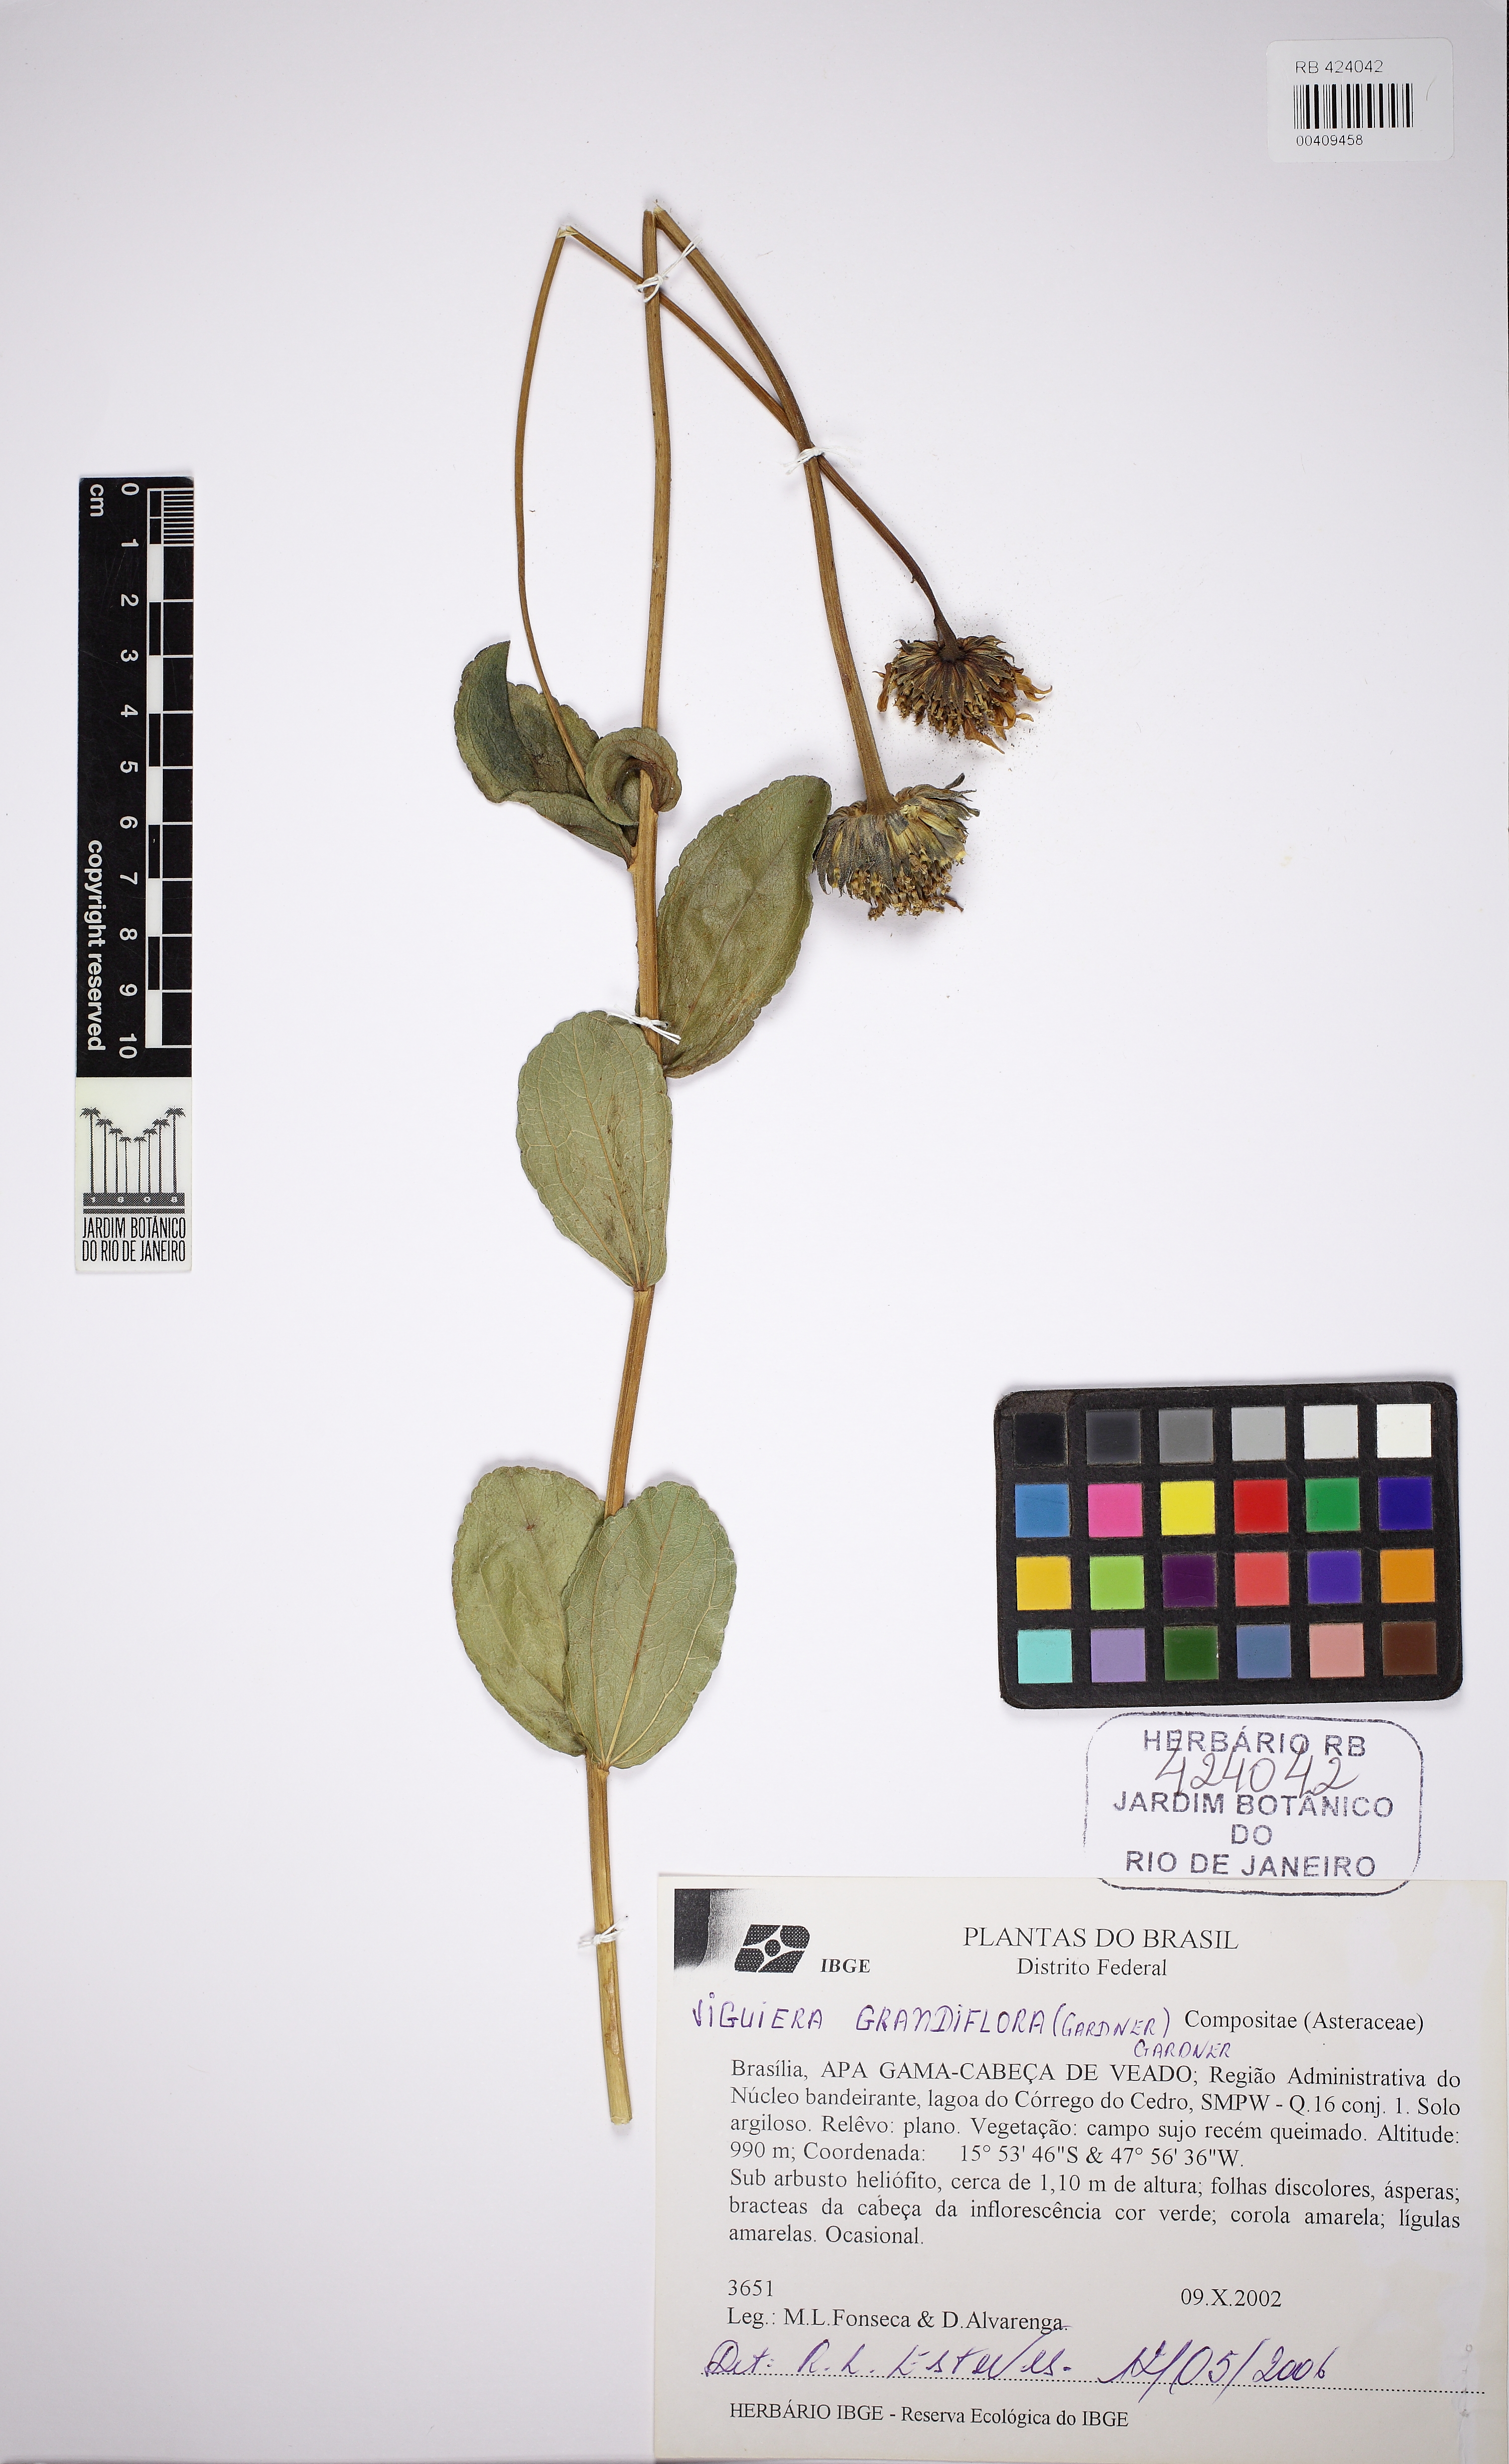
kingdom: Plantae
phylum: Tracheophyta
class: Magnoliopsida
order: Asterales
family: Asteraceae
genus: Aldama
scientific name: Aldama grandiflora
